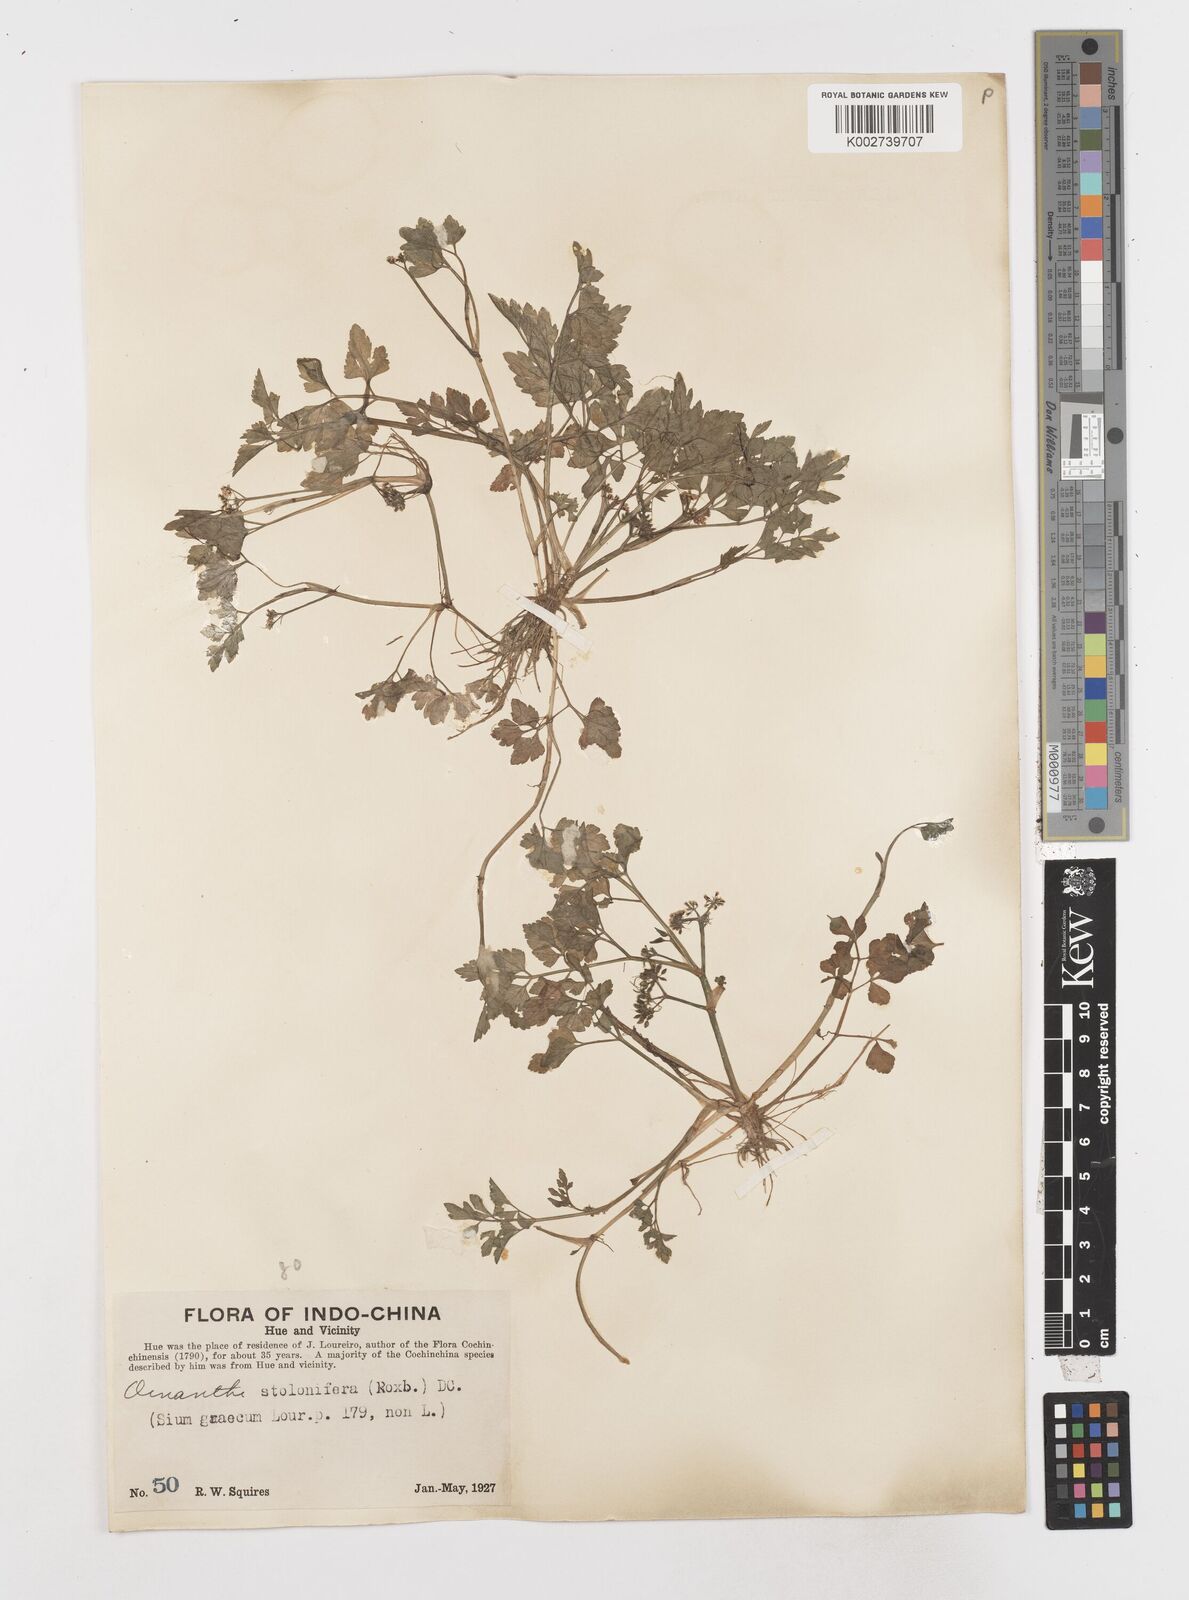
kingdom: Plantae
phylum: Tracheophyta
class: Magnoliopsida
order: Apiales
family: Apiaceae
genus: Oenanthe
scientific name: Oenanthe javanica
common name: Java water-dropwort
